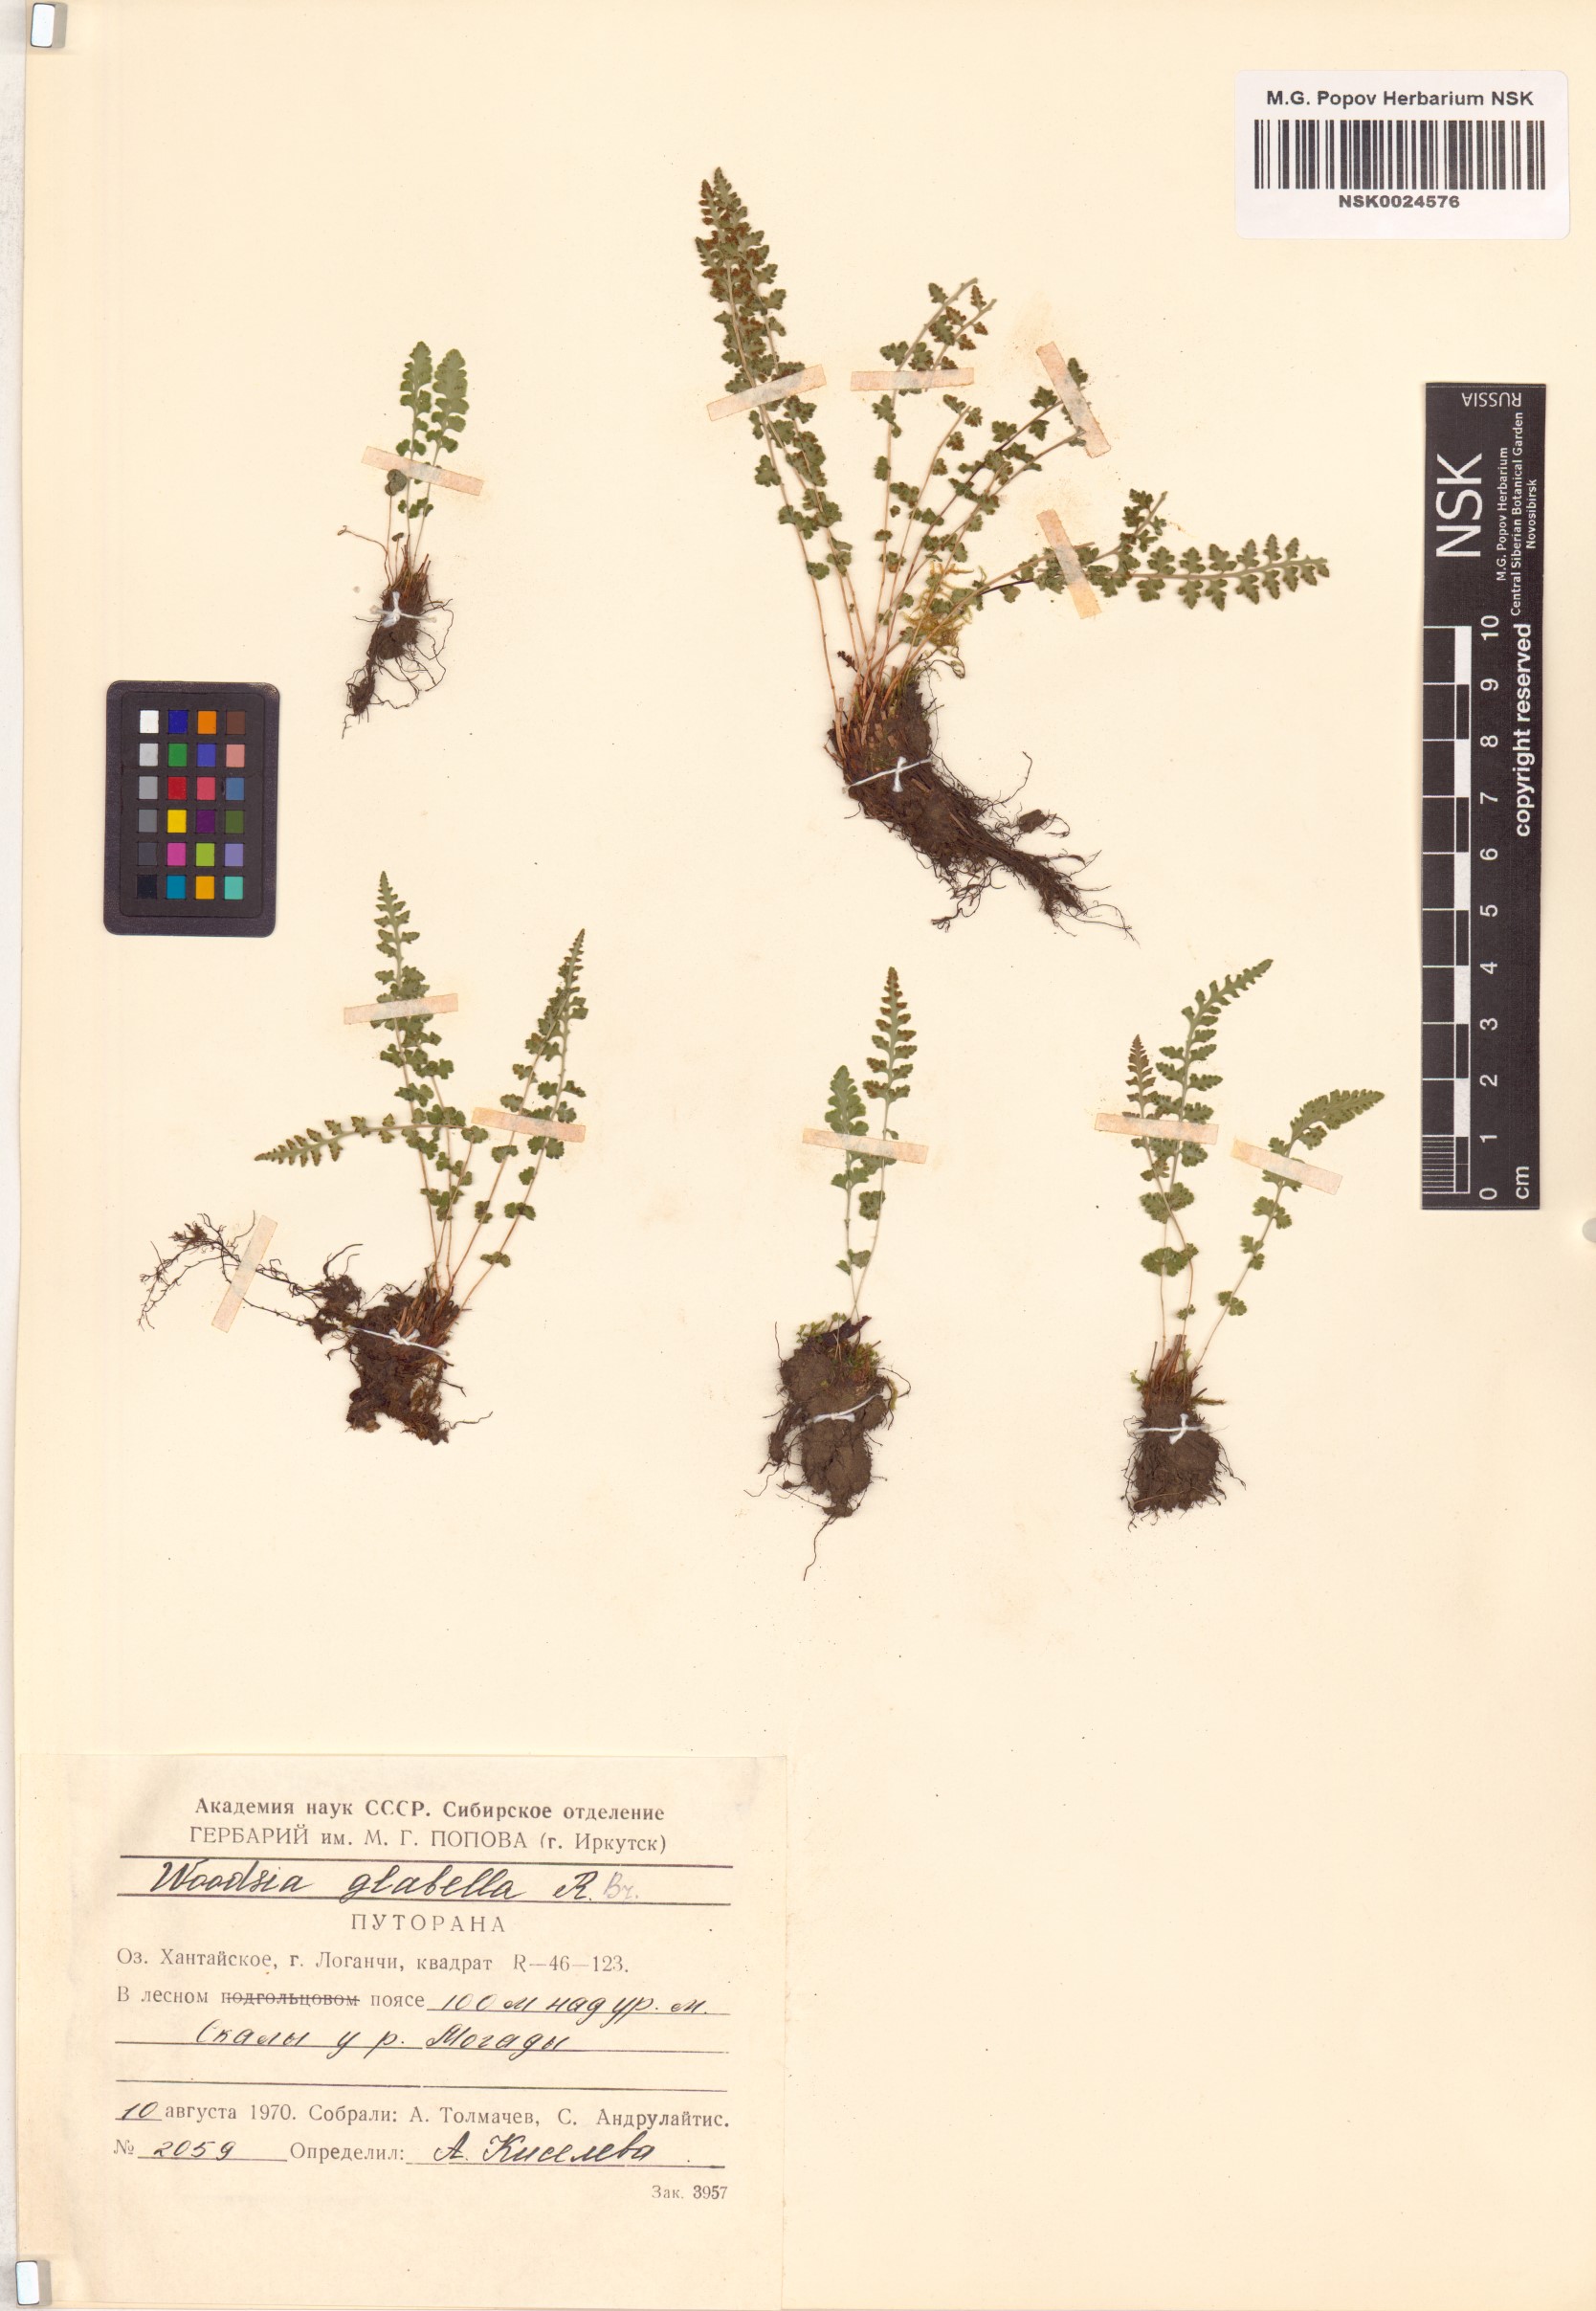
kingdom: Plantae
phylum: Tracheophyta
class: Polypodiopsida
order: Polypodiales
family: Woodsiaceae
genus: Woodsia
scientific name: Woodsia glabella
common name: Smooth woodsia
